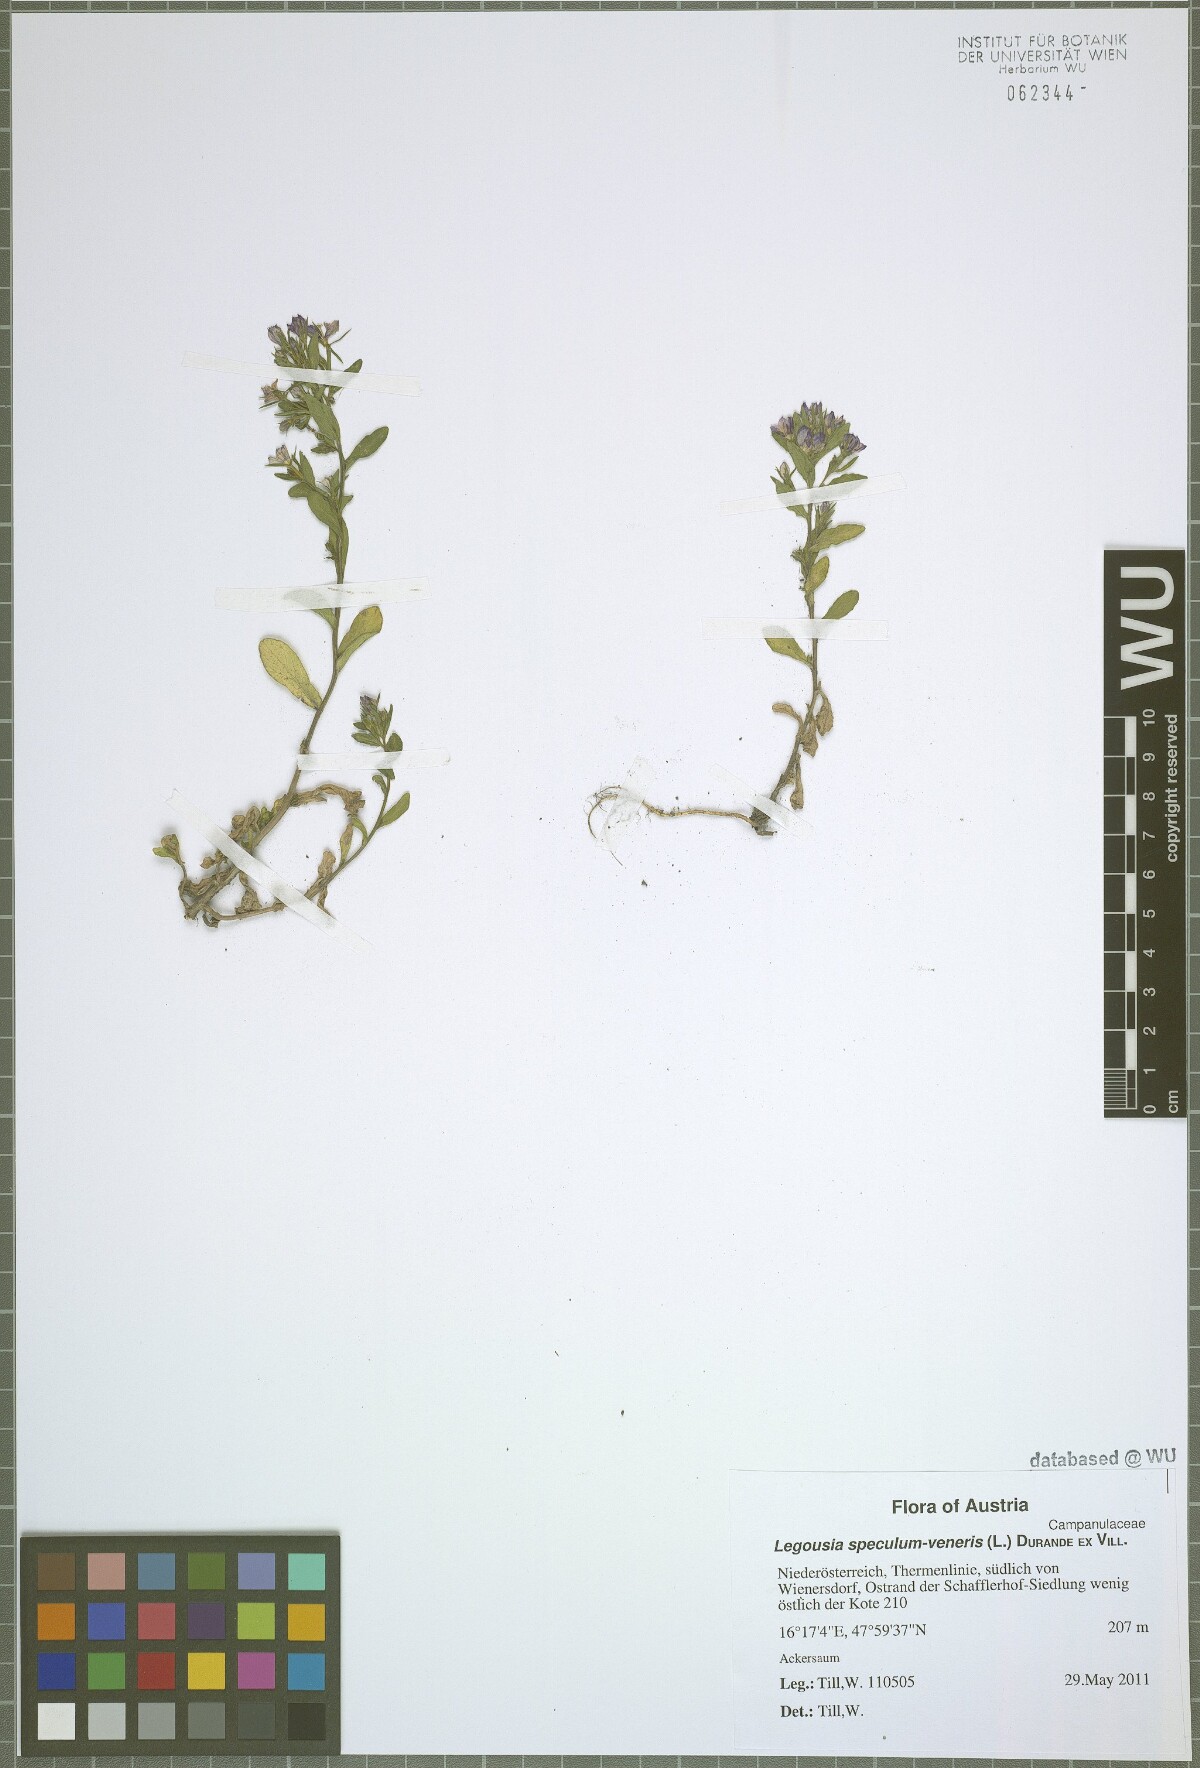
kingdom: Plantae
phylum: Tracheophyta
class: Magnoliopsida
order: Asterales
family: Campanulaceae
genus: Legousia
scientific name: Legousia speculum-veneris
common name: Large venus's-looking-glass
